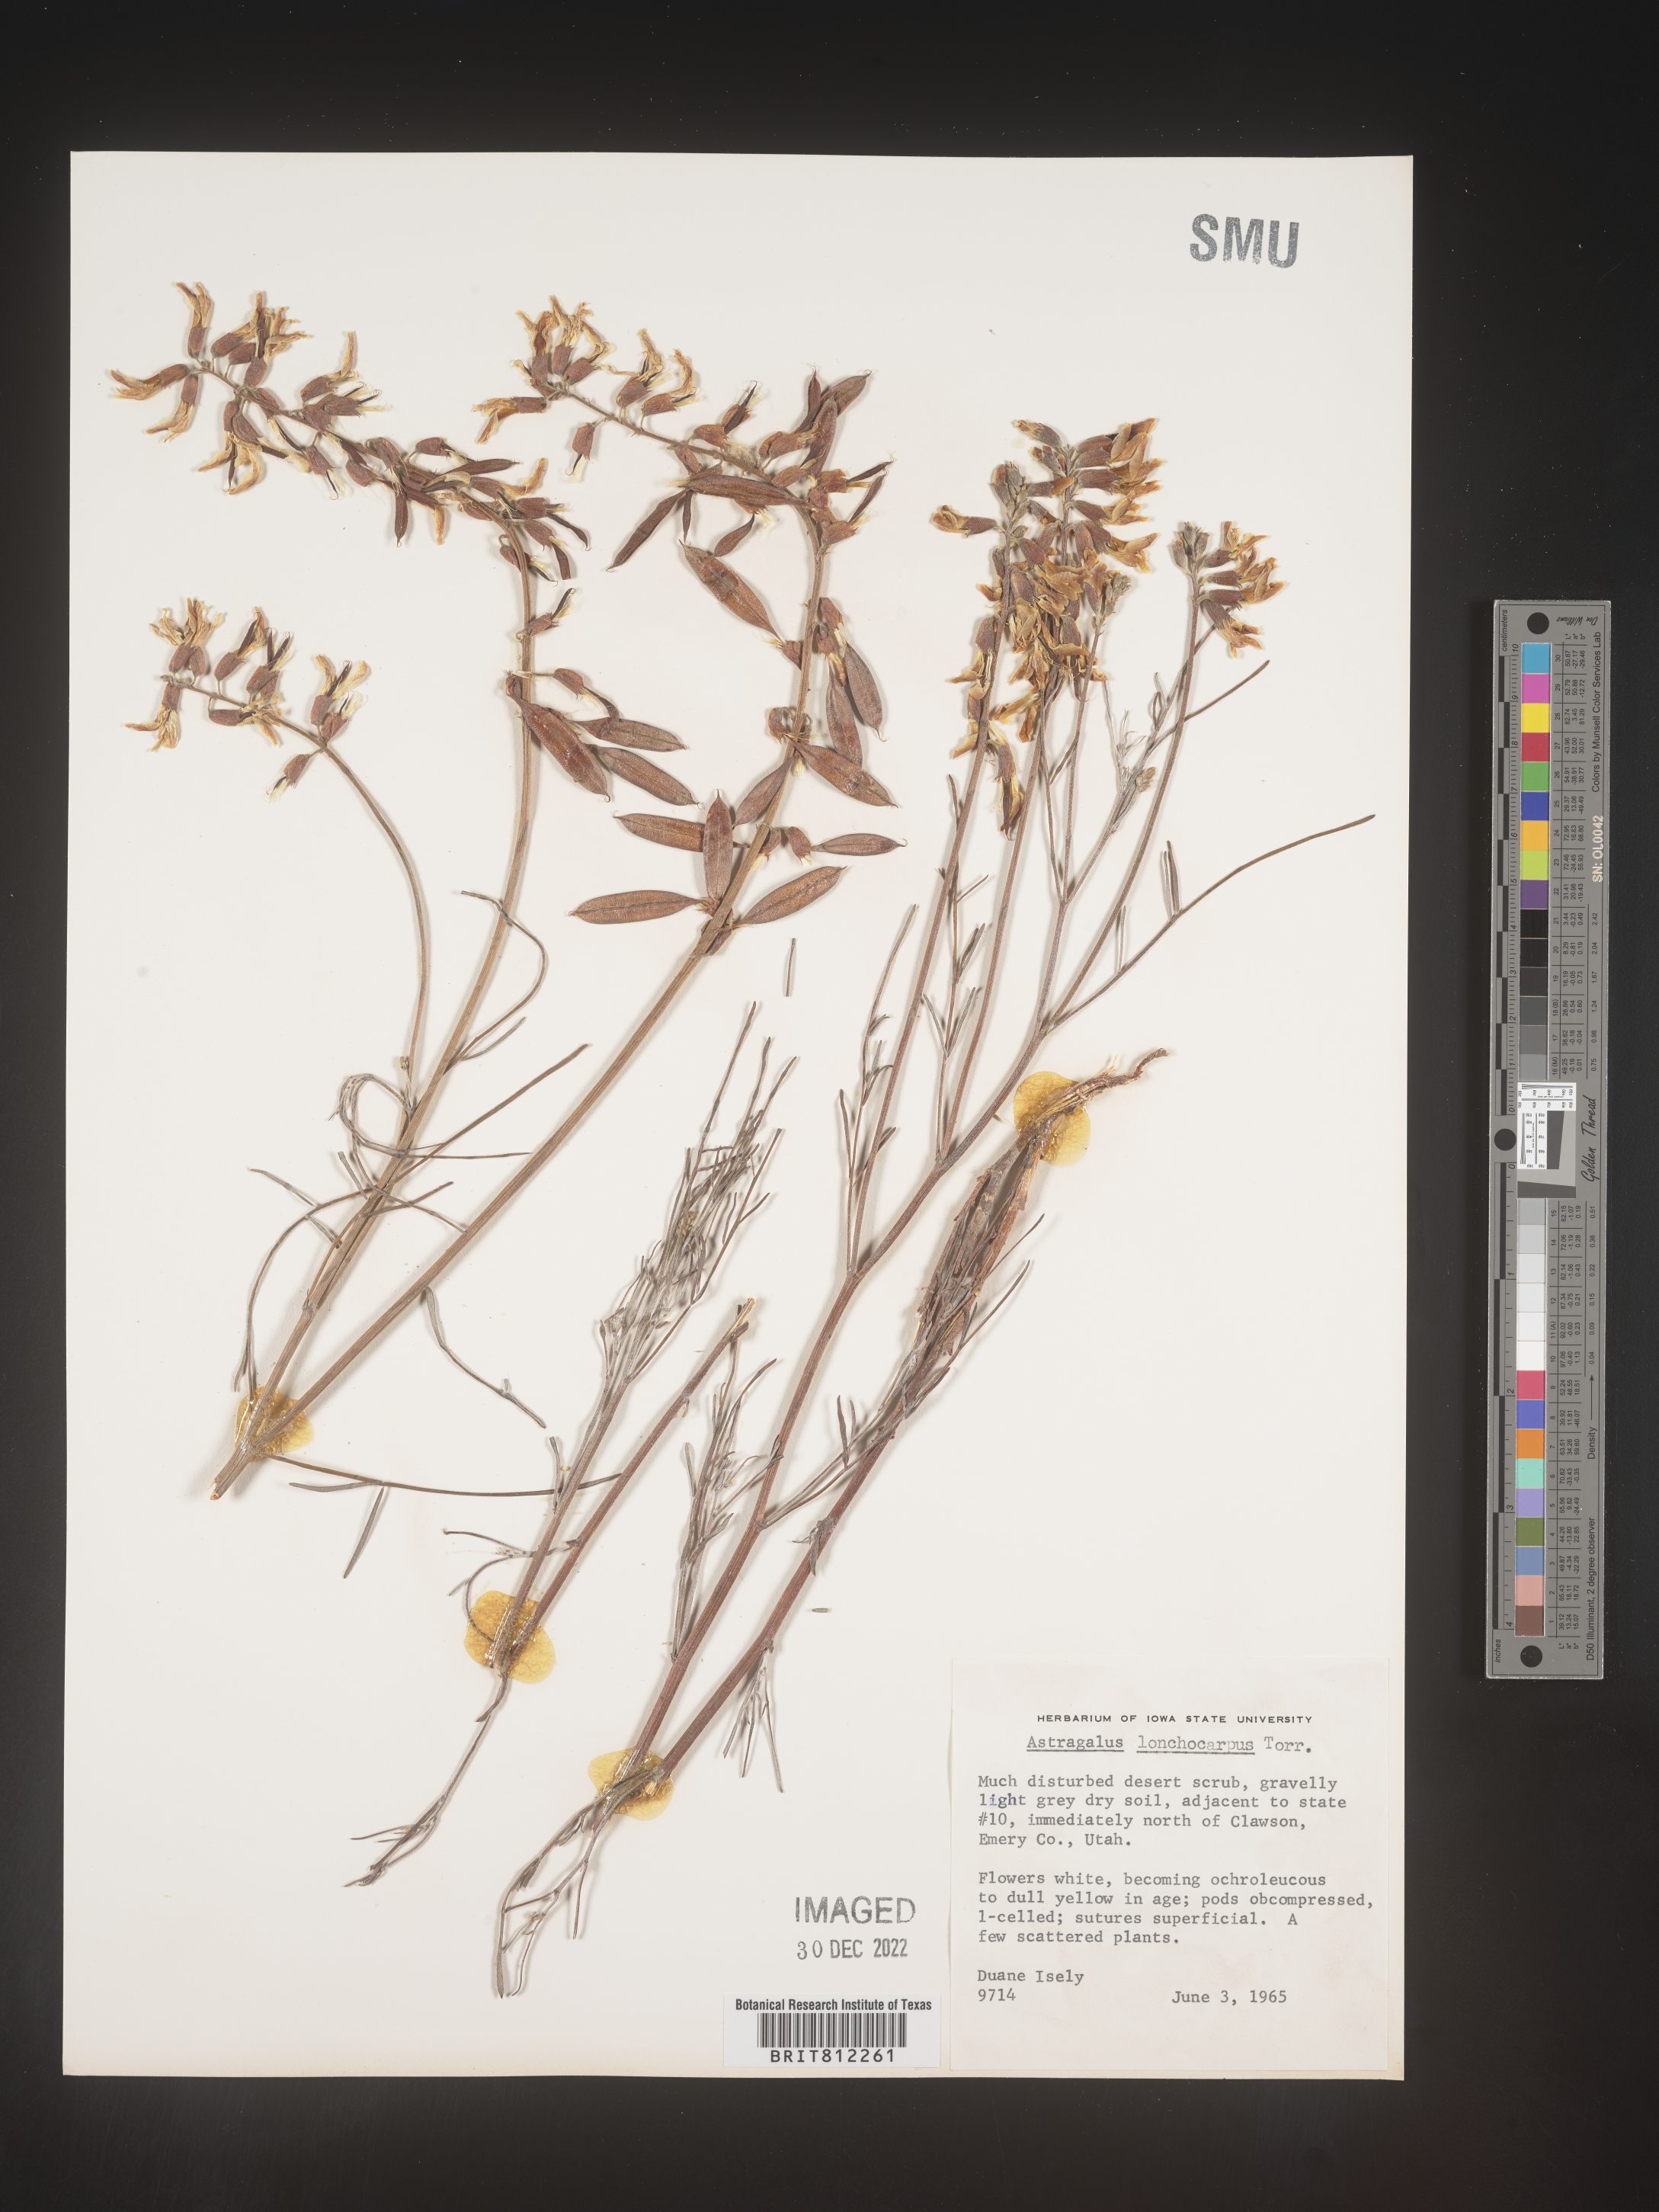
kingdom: Plantae
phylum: Tracheophyta
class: Magnoliopsida
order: Fabales
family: Fabaceae
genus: Astragalus
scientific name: Astragalus lonchocarpus
